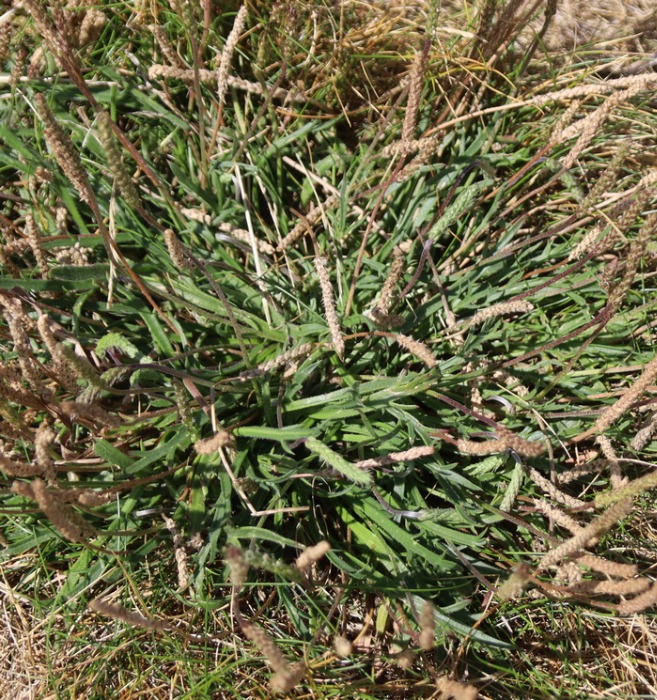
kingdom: Plantae
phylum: Tracheophyta
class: Magnoliopsida
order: Lamiales
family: Plantaginaceae
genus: Plantago
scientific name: Plantago coronopus
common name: Fliget vejbred
